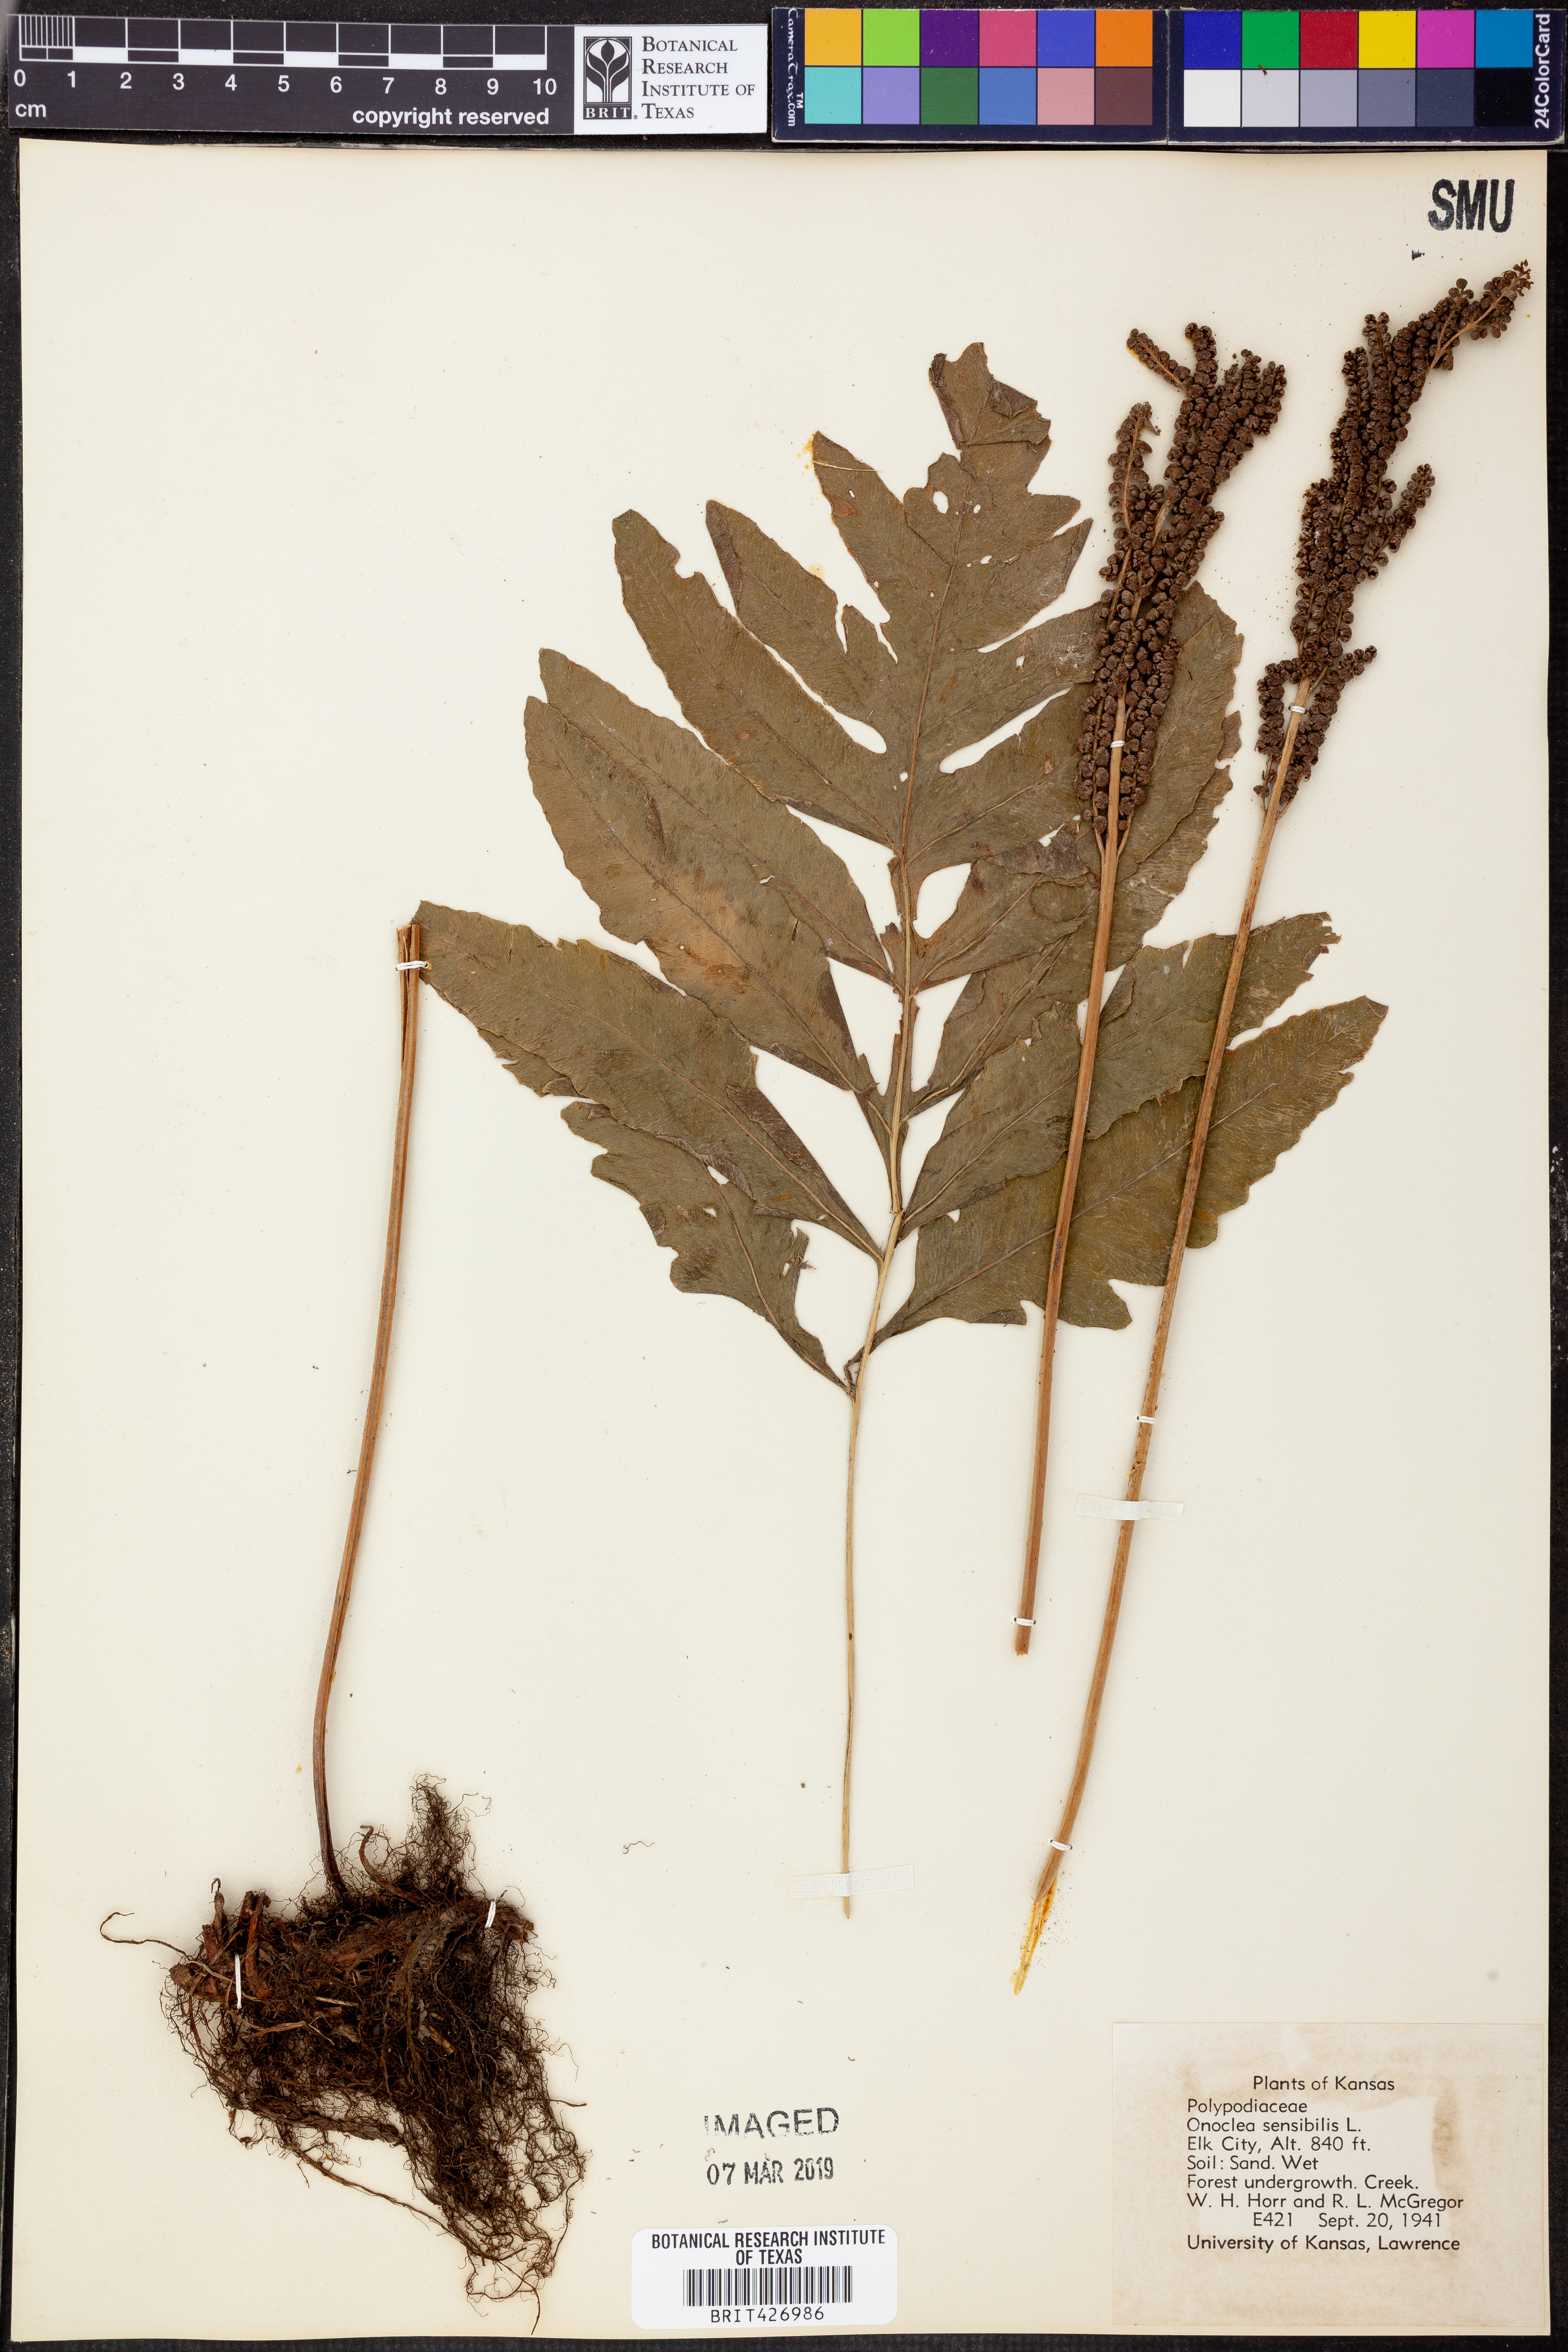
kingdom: Plantae
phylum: Tracheophyta
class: Polypodiopsida
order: Polypodiales
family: Onocleaceae
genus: Onoclea
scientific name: Onoclea sensibilis
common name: Sensitive fern
